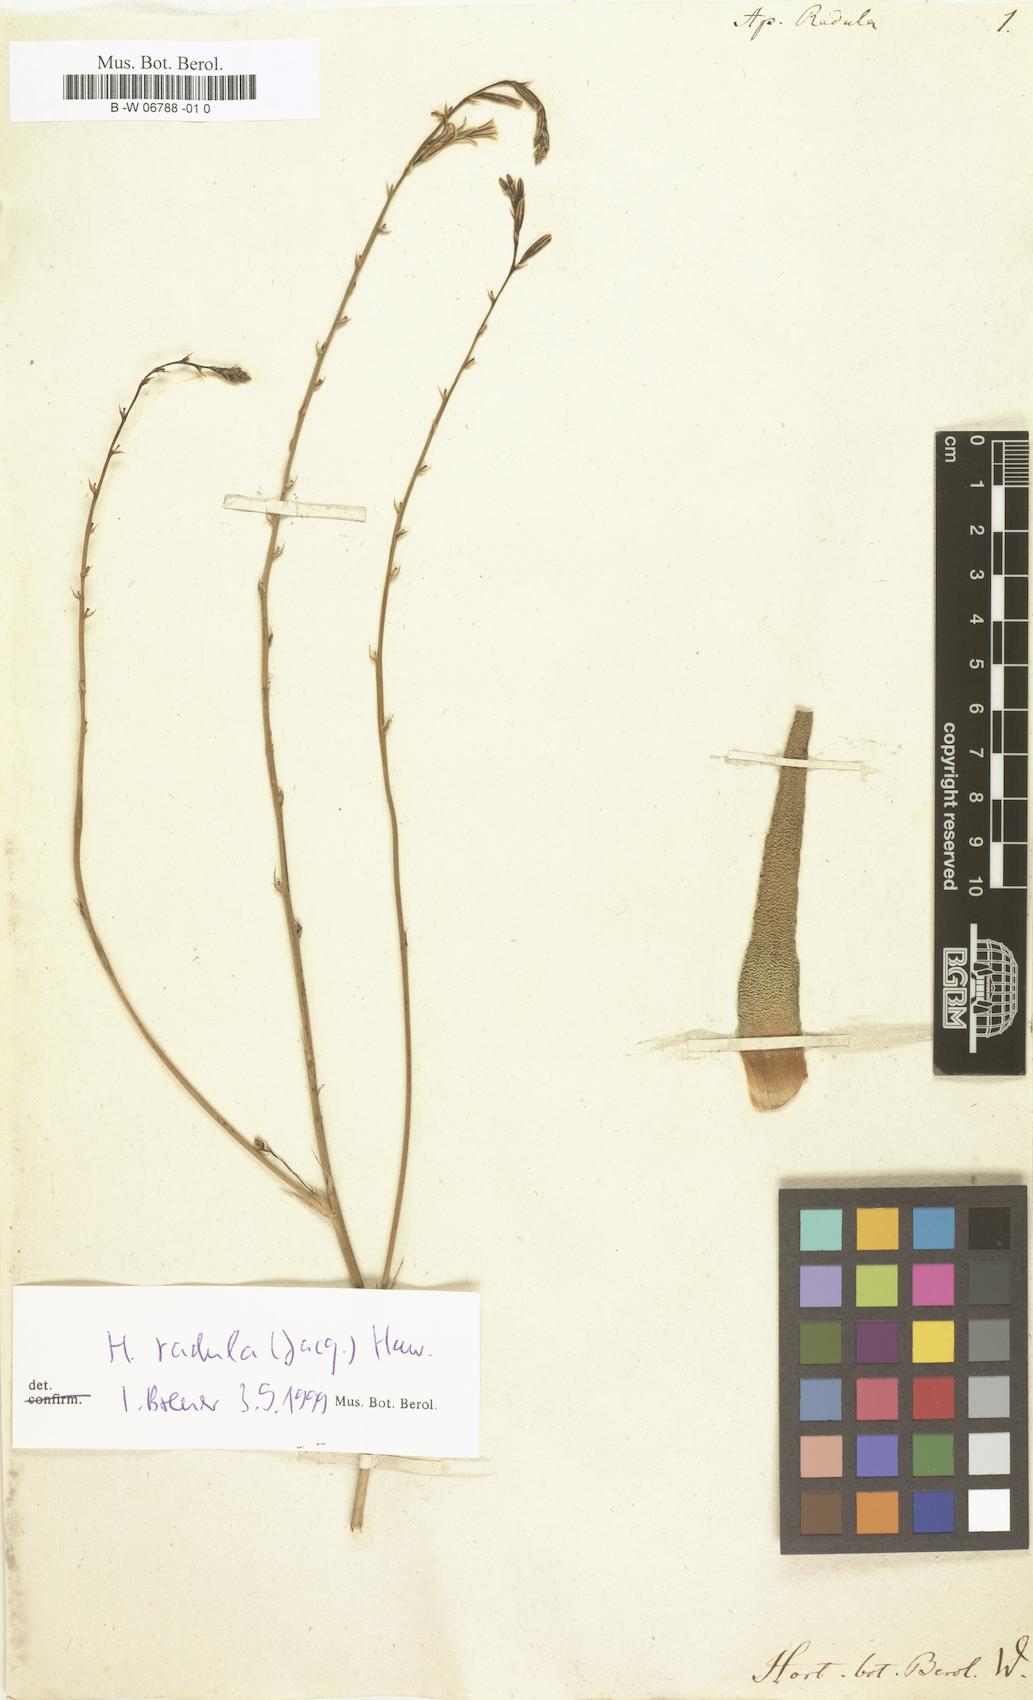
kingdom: Plantae
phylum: Tracheophyta
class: Liliopsida
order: Asparagales
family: Asphodelaceae
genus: Haworthiopsis
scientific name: Haworthiopsis attenuata
